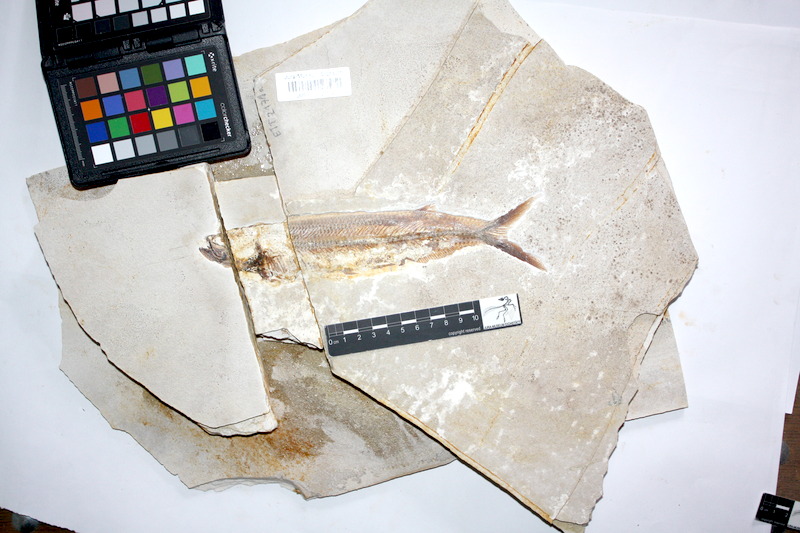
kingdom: Animalia
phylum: Chordata
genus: Thrissops
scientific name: Thrissops formosus
